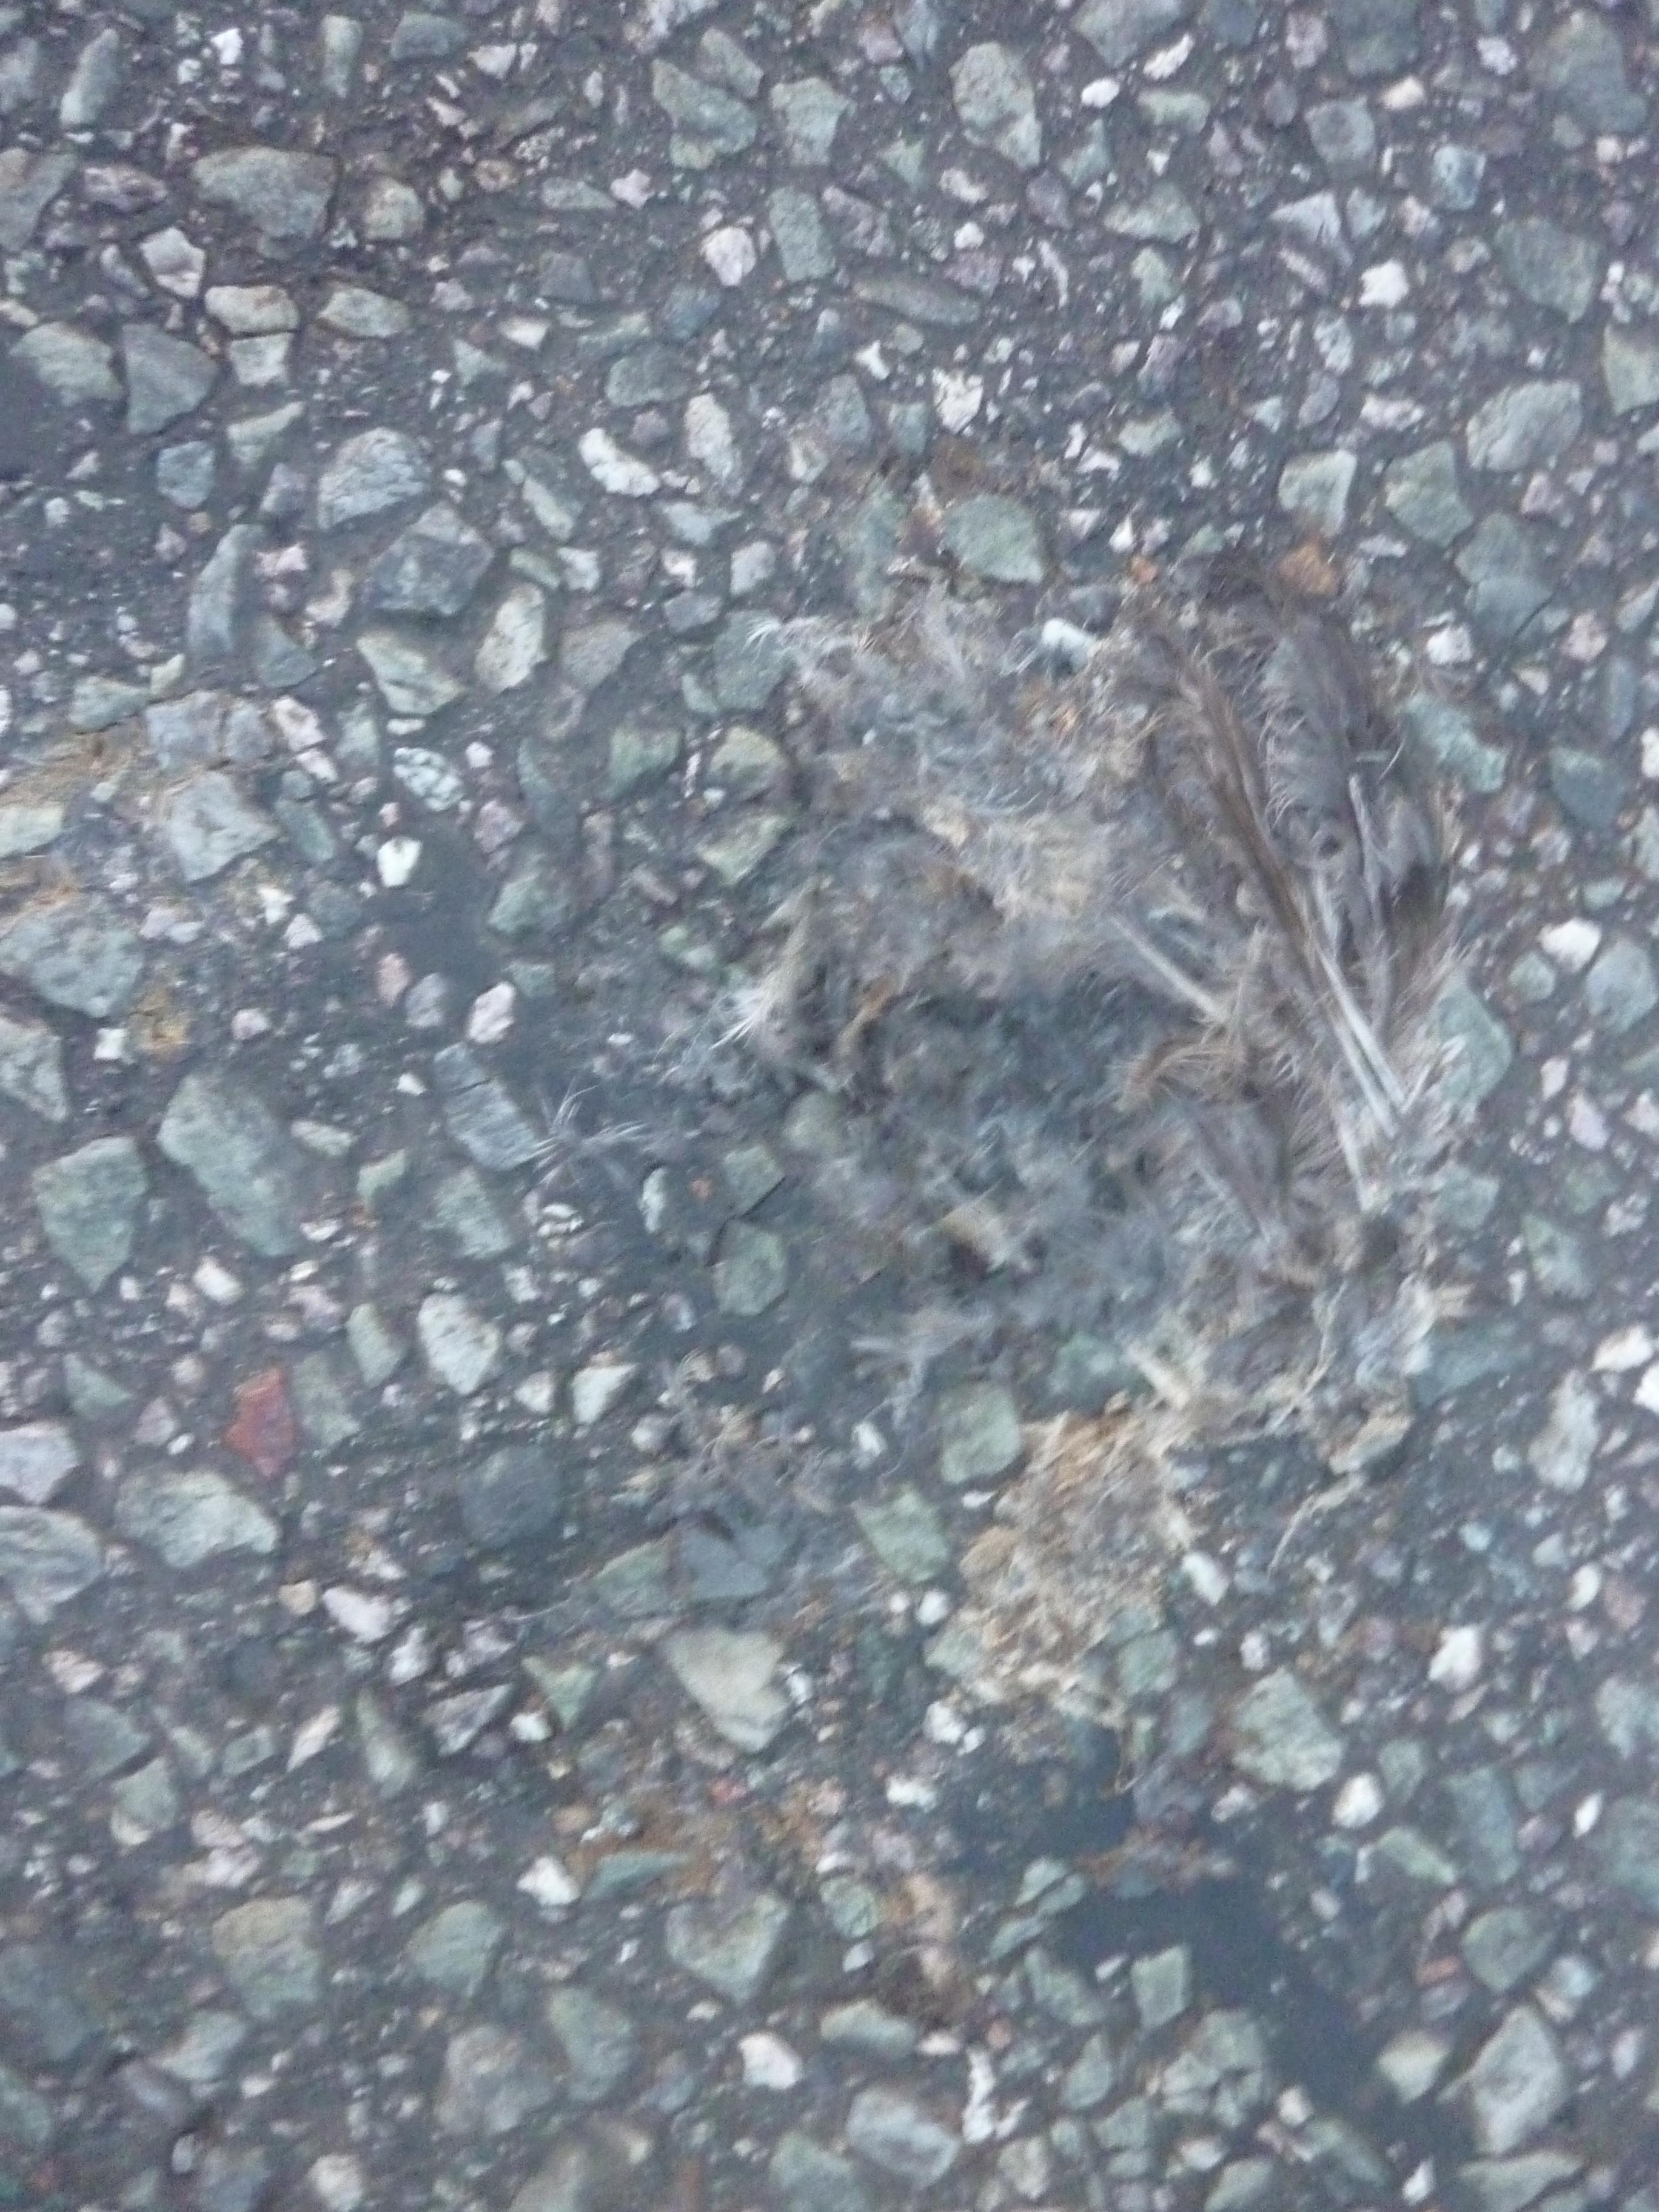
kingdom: Animalia
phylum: Chordata
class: Aves
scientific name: Aves
